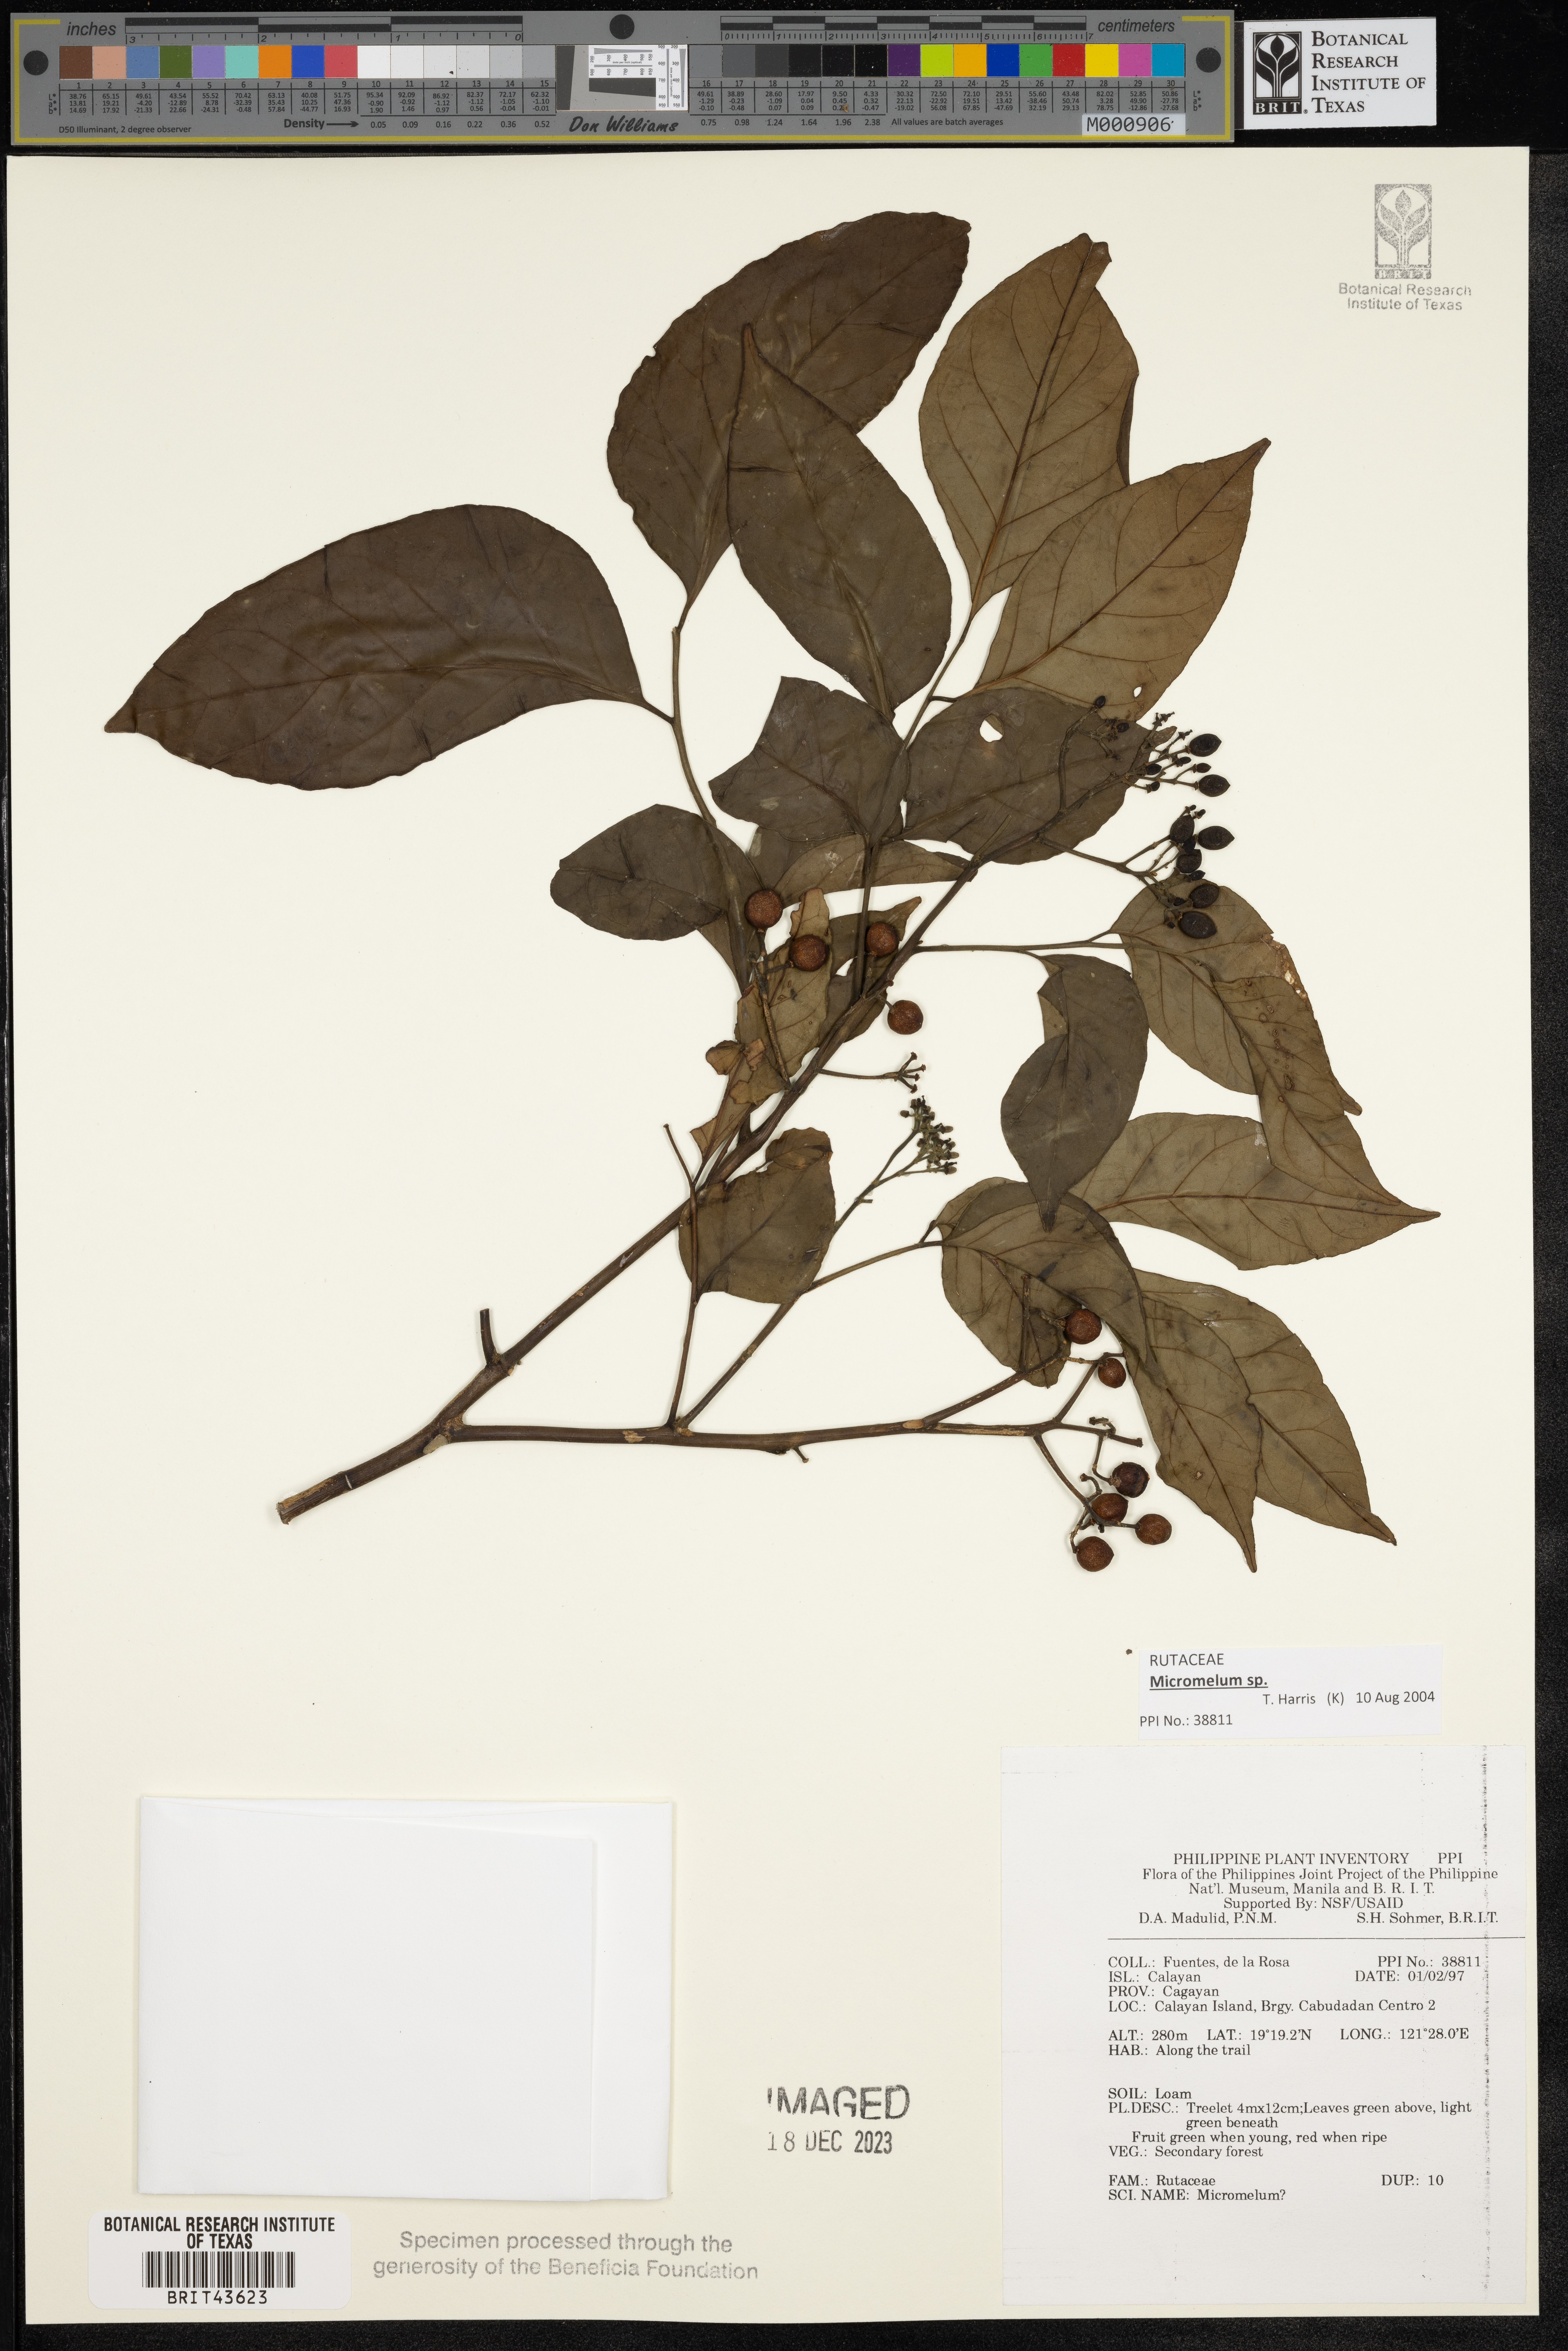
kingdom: Plantae
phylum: Tracheophyta
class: Magnoliopsida
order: Sapindales
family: Rutaceae
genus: Micromelum
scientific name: Micromelum
